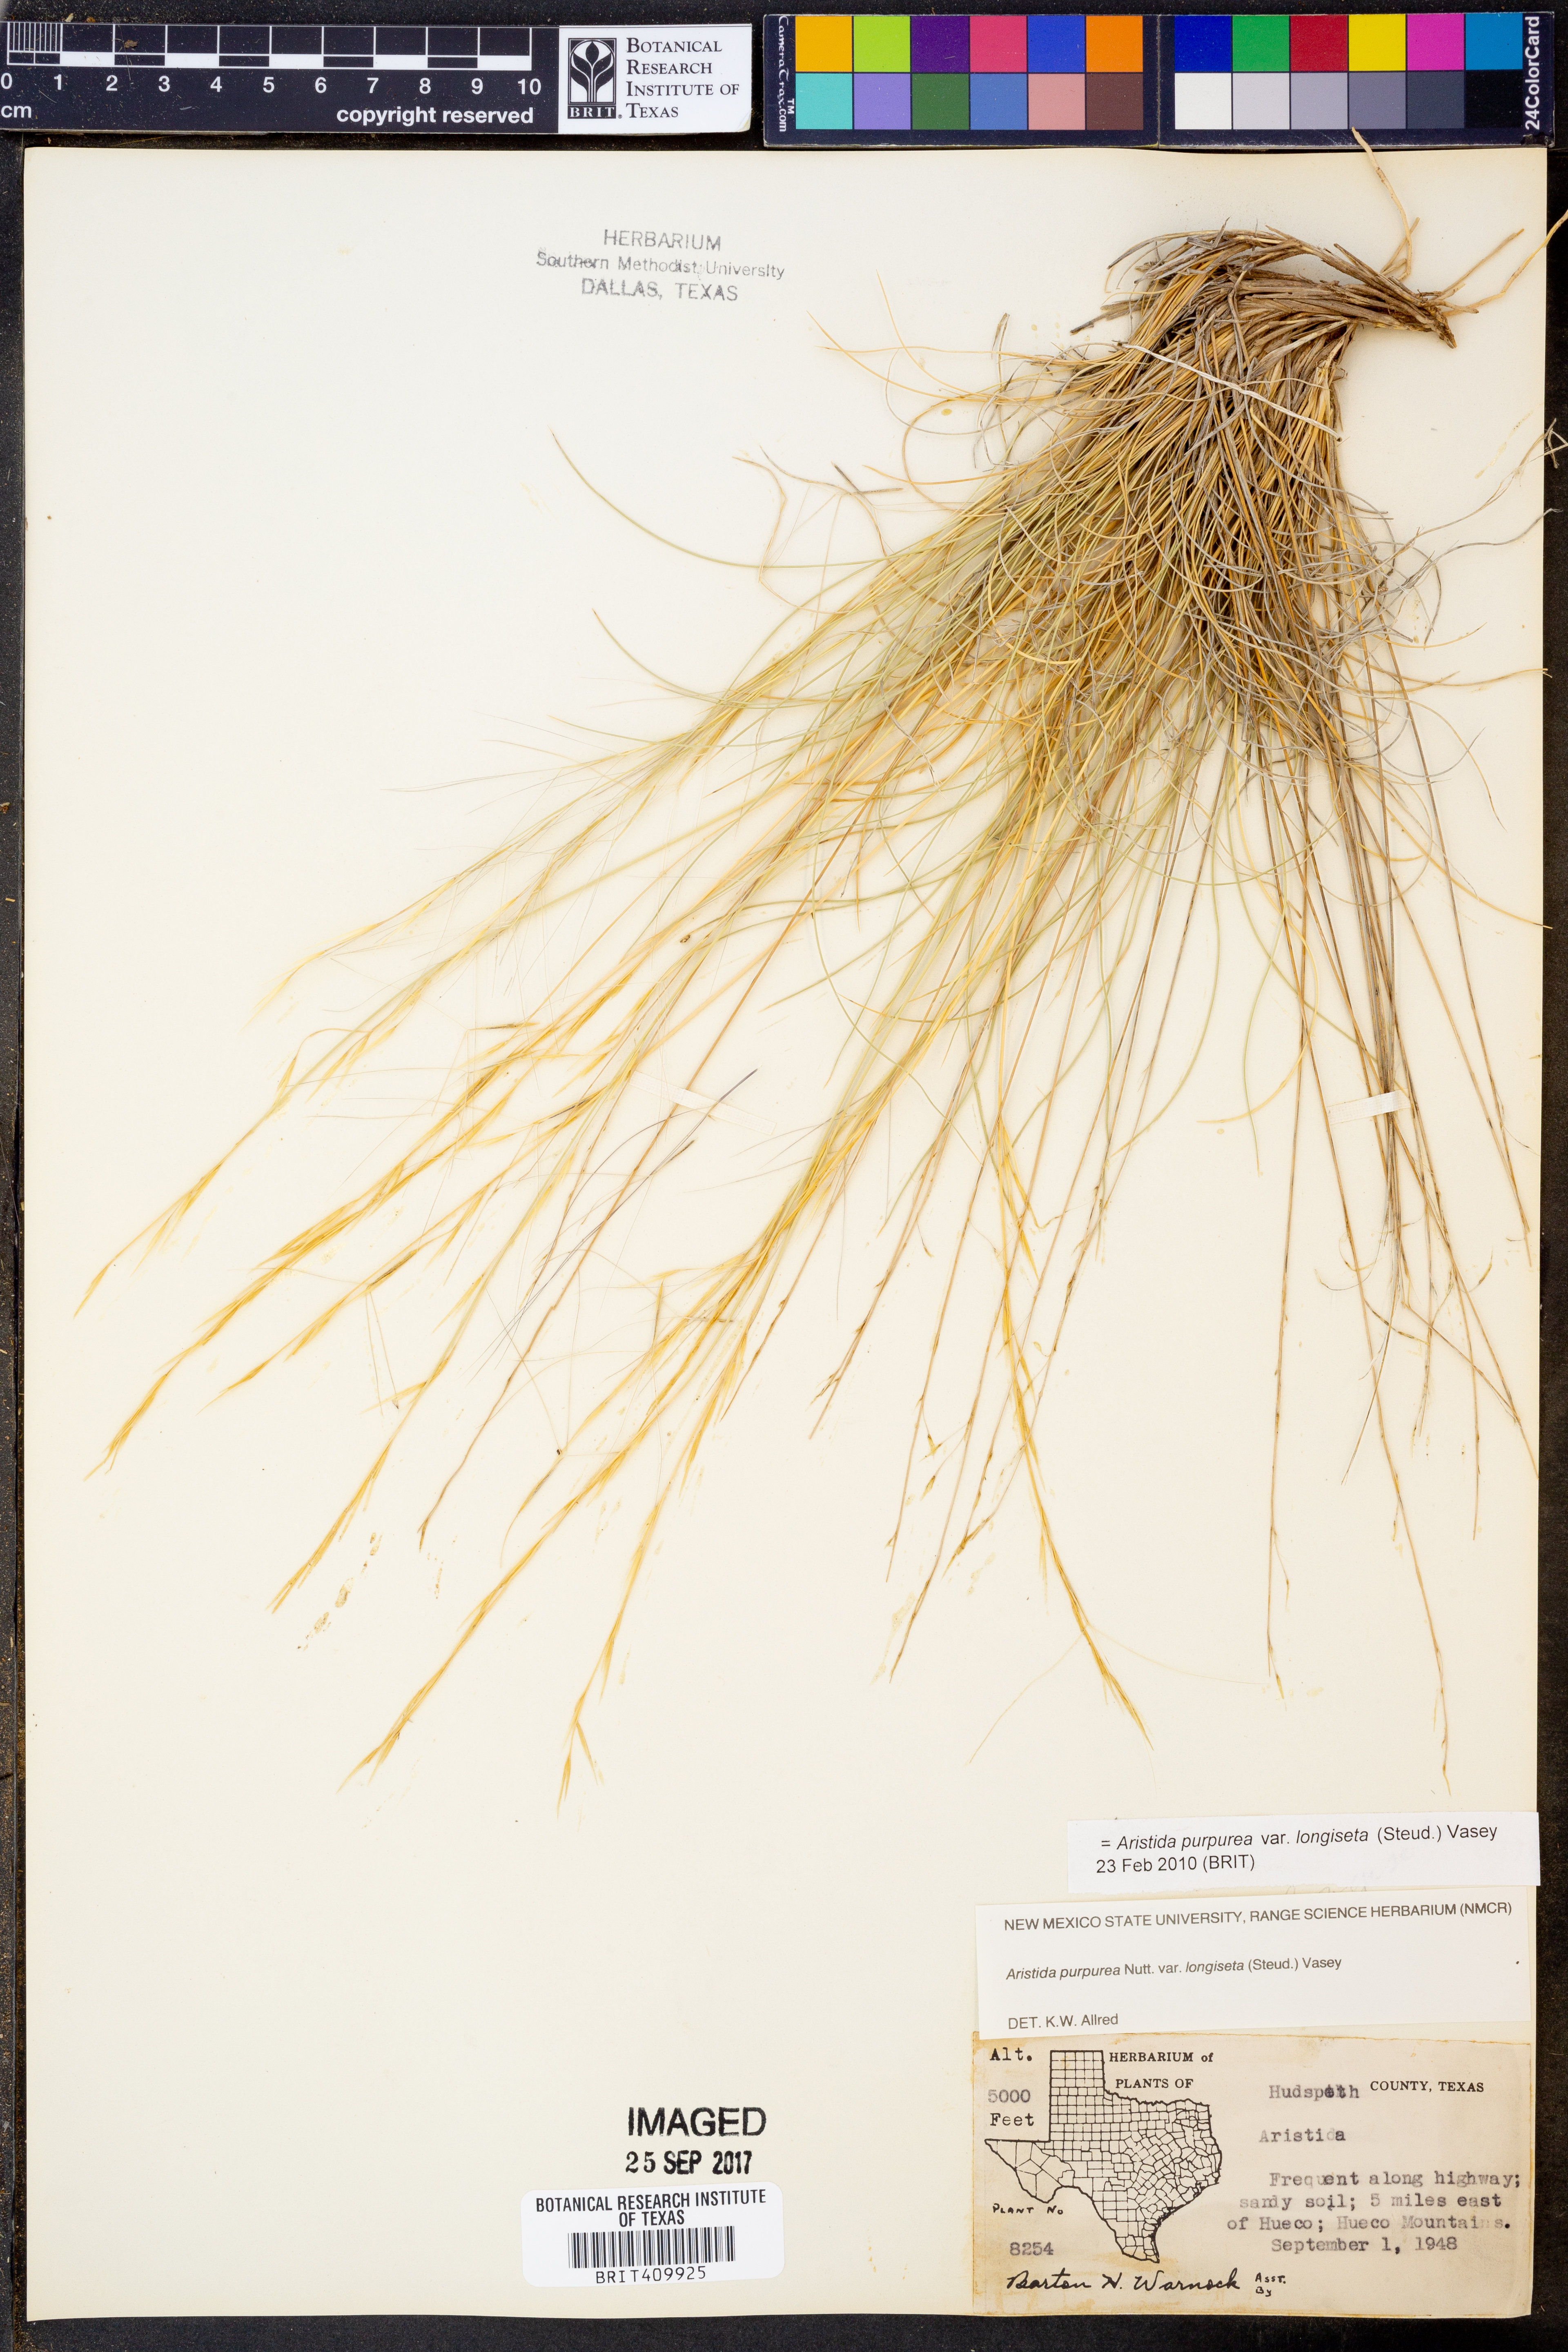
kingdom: Plantae
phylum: Tracheophyta
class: Liliopsida
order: Poales
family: Poaceae
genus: Aristida
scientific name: Aristida longiseta
